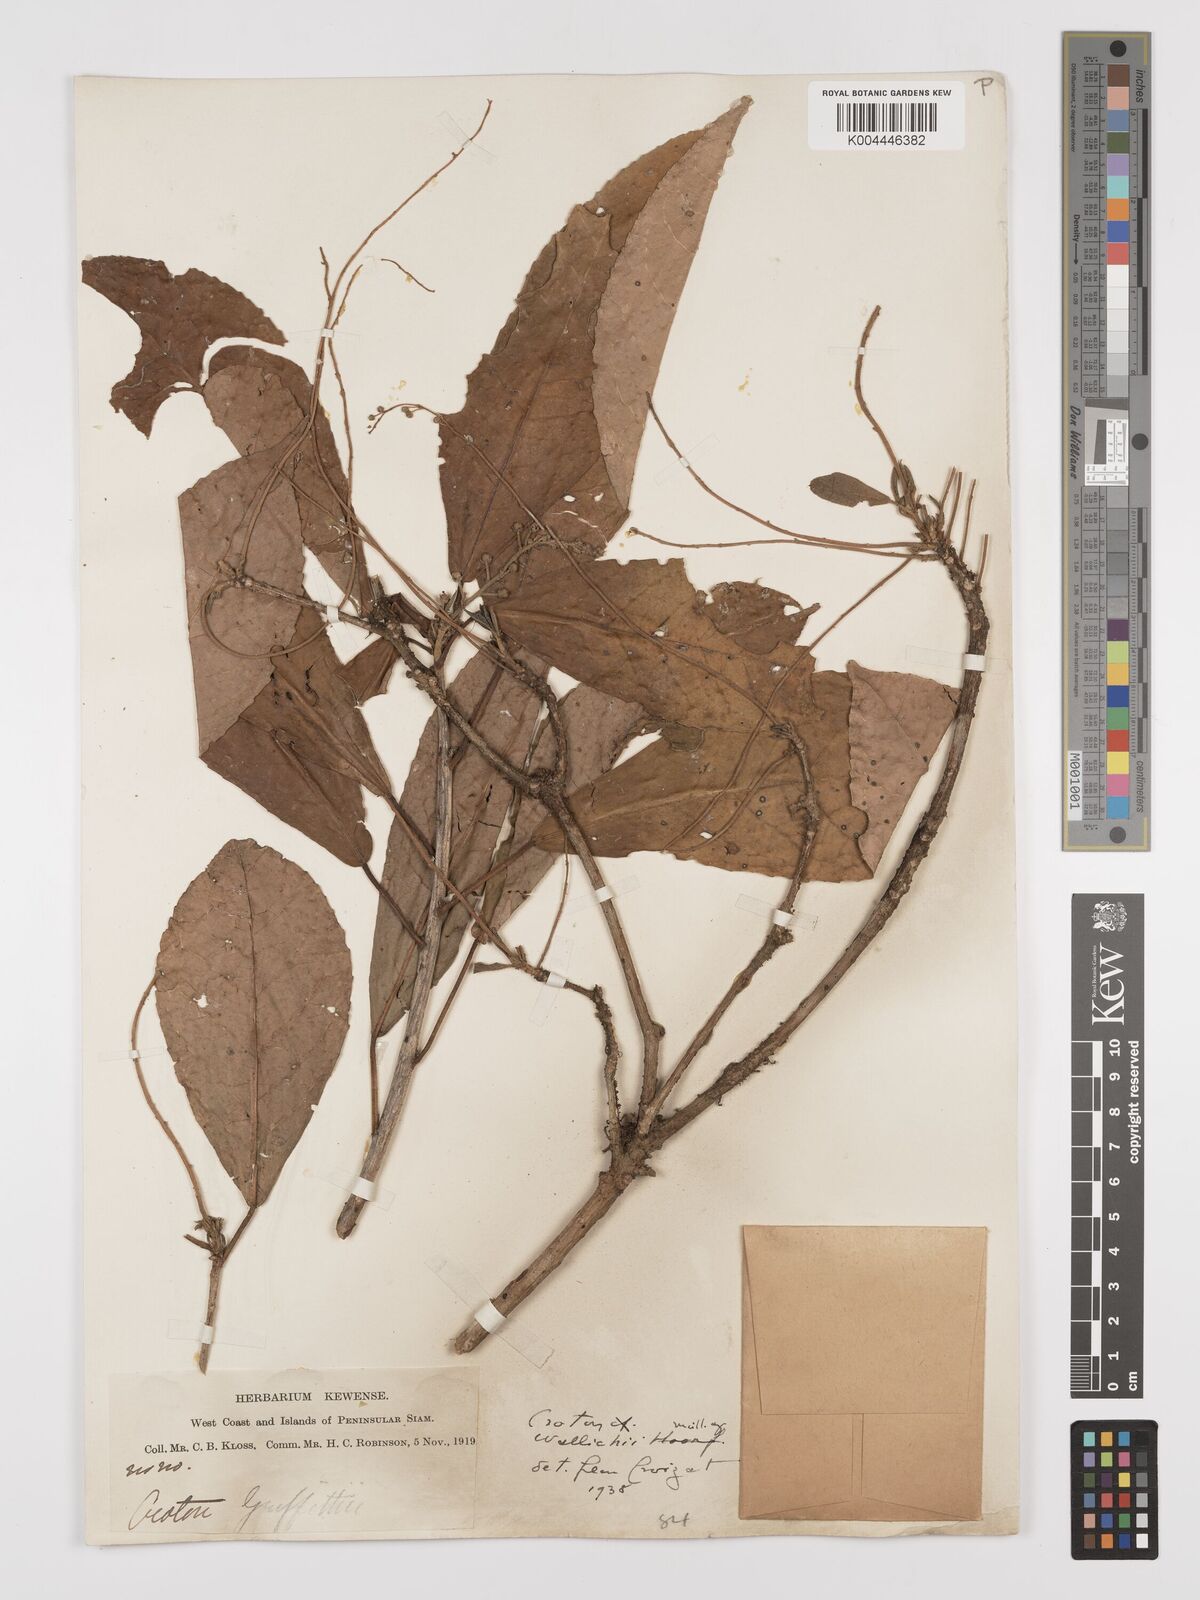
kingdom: Plantae
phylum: Tracheophyta
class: Magnoliopsida
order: Malpighiales
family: Euphorbiaceae
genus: Croton
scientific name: Croton wallichii
